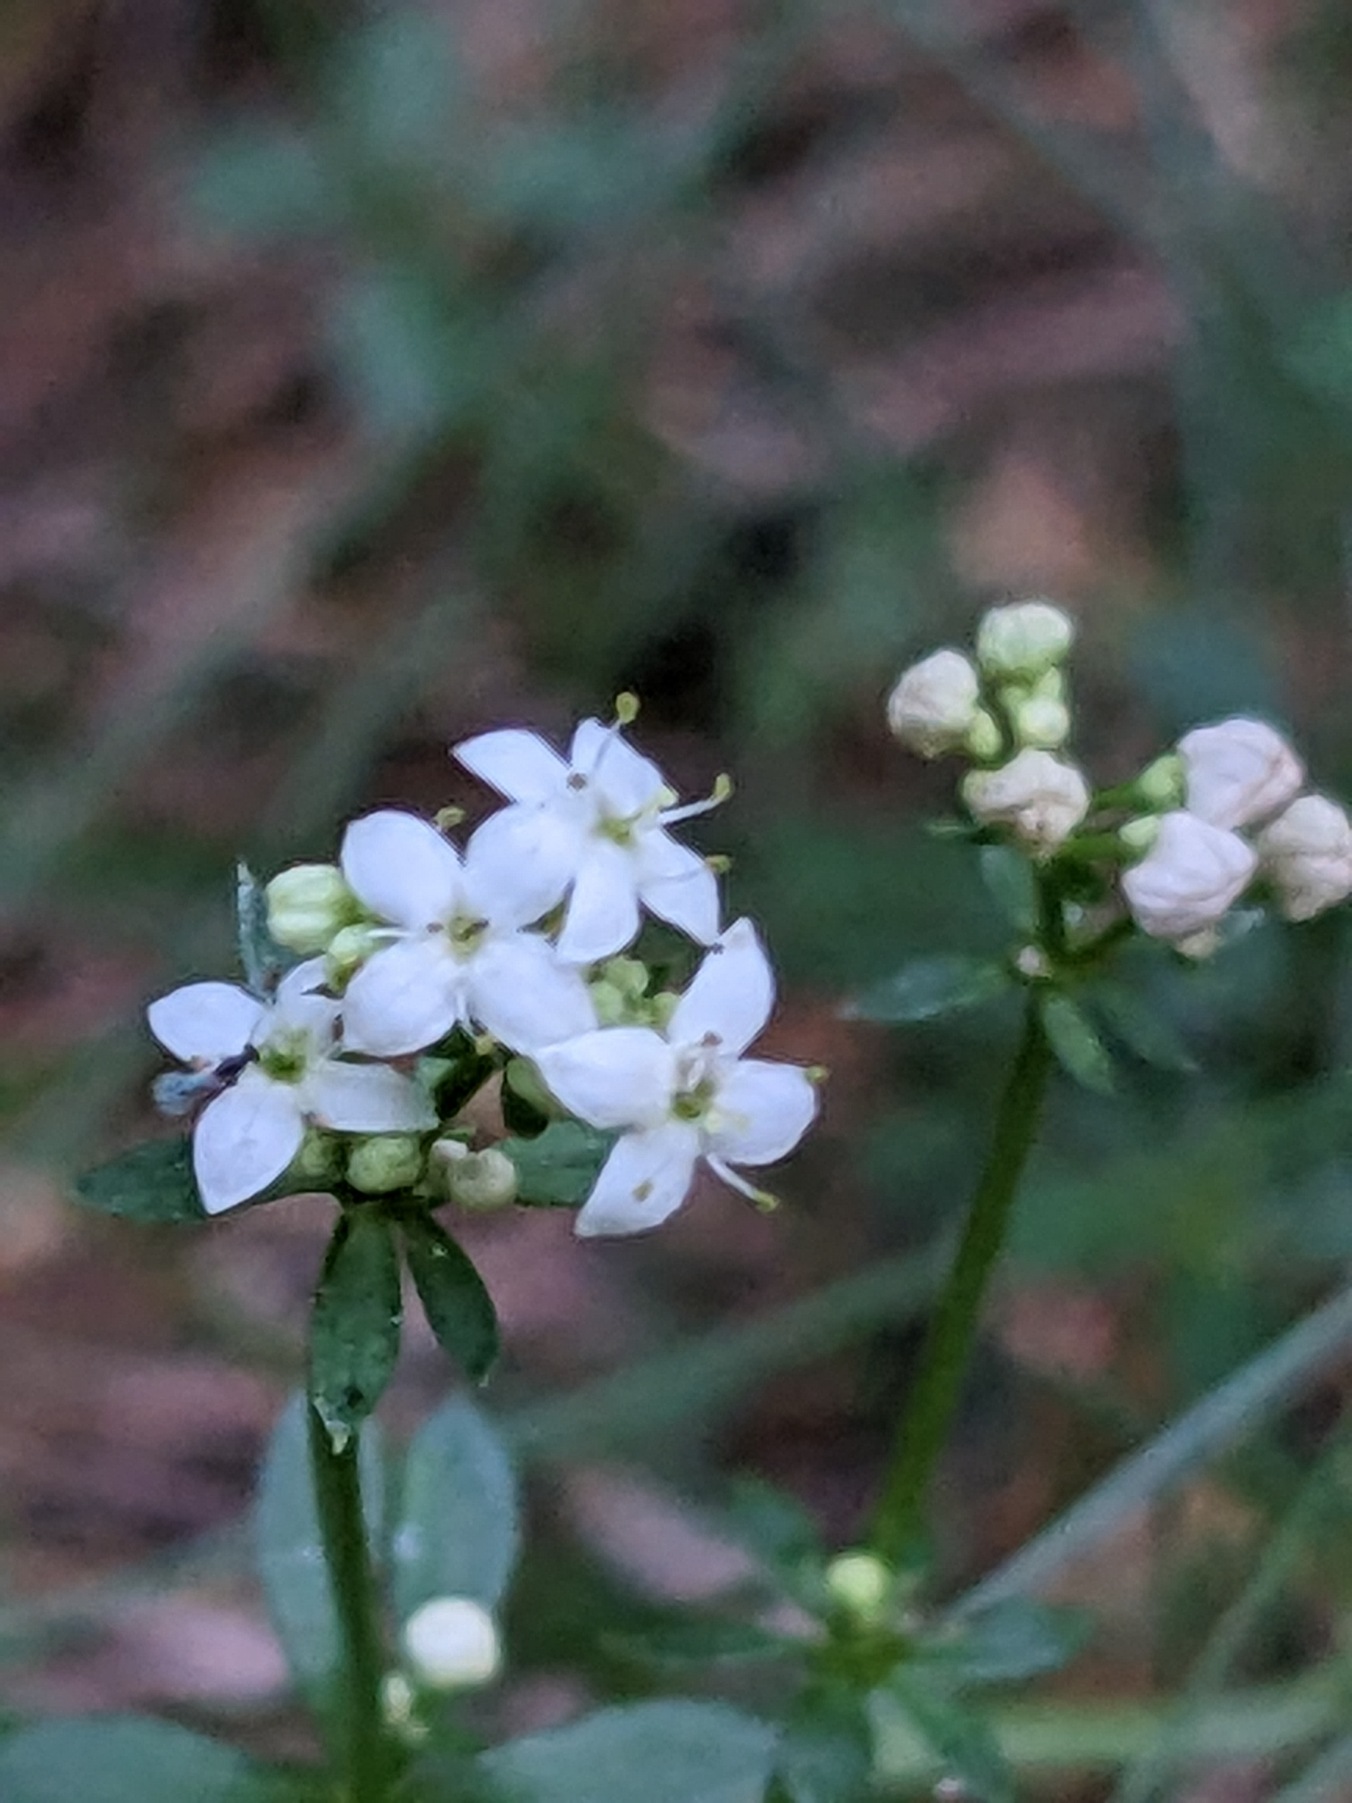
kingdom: Plantae
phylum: Tracheophyta
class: Magnoliopsida
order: Gentianales
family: Rubiaceae
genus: Galium
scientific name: Galium saxatile
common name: Lyng-snerre
